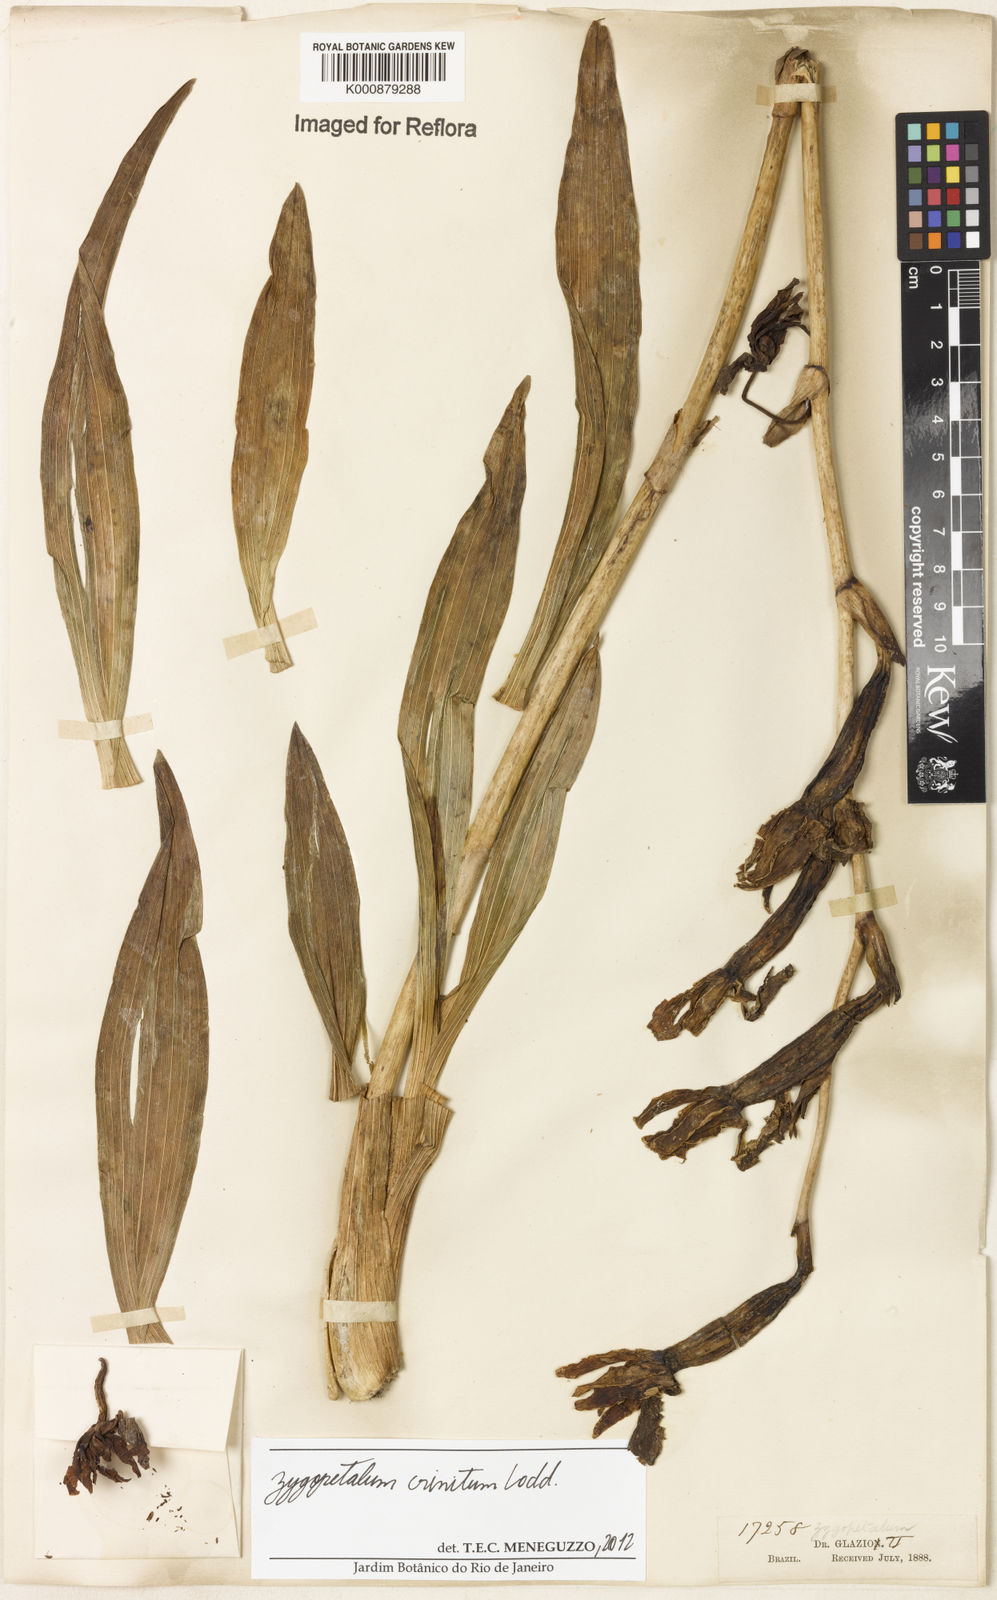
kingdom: Plantae
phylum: Tracheophyta
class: Liliopsida
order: Asparagales
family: Orchidaceae
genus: Zygopetalum
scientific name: Zygopetalum crinitum
